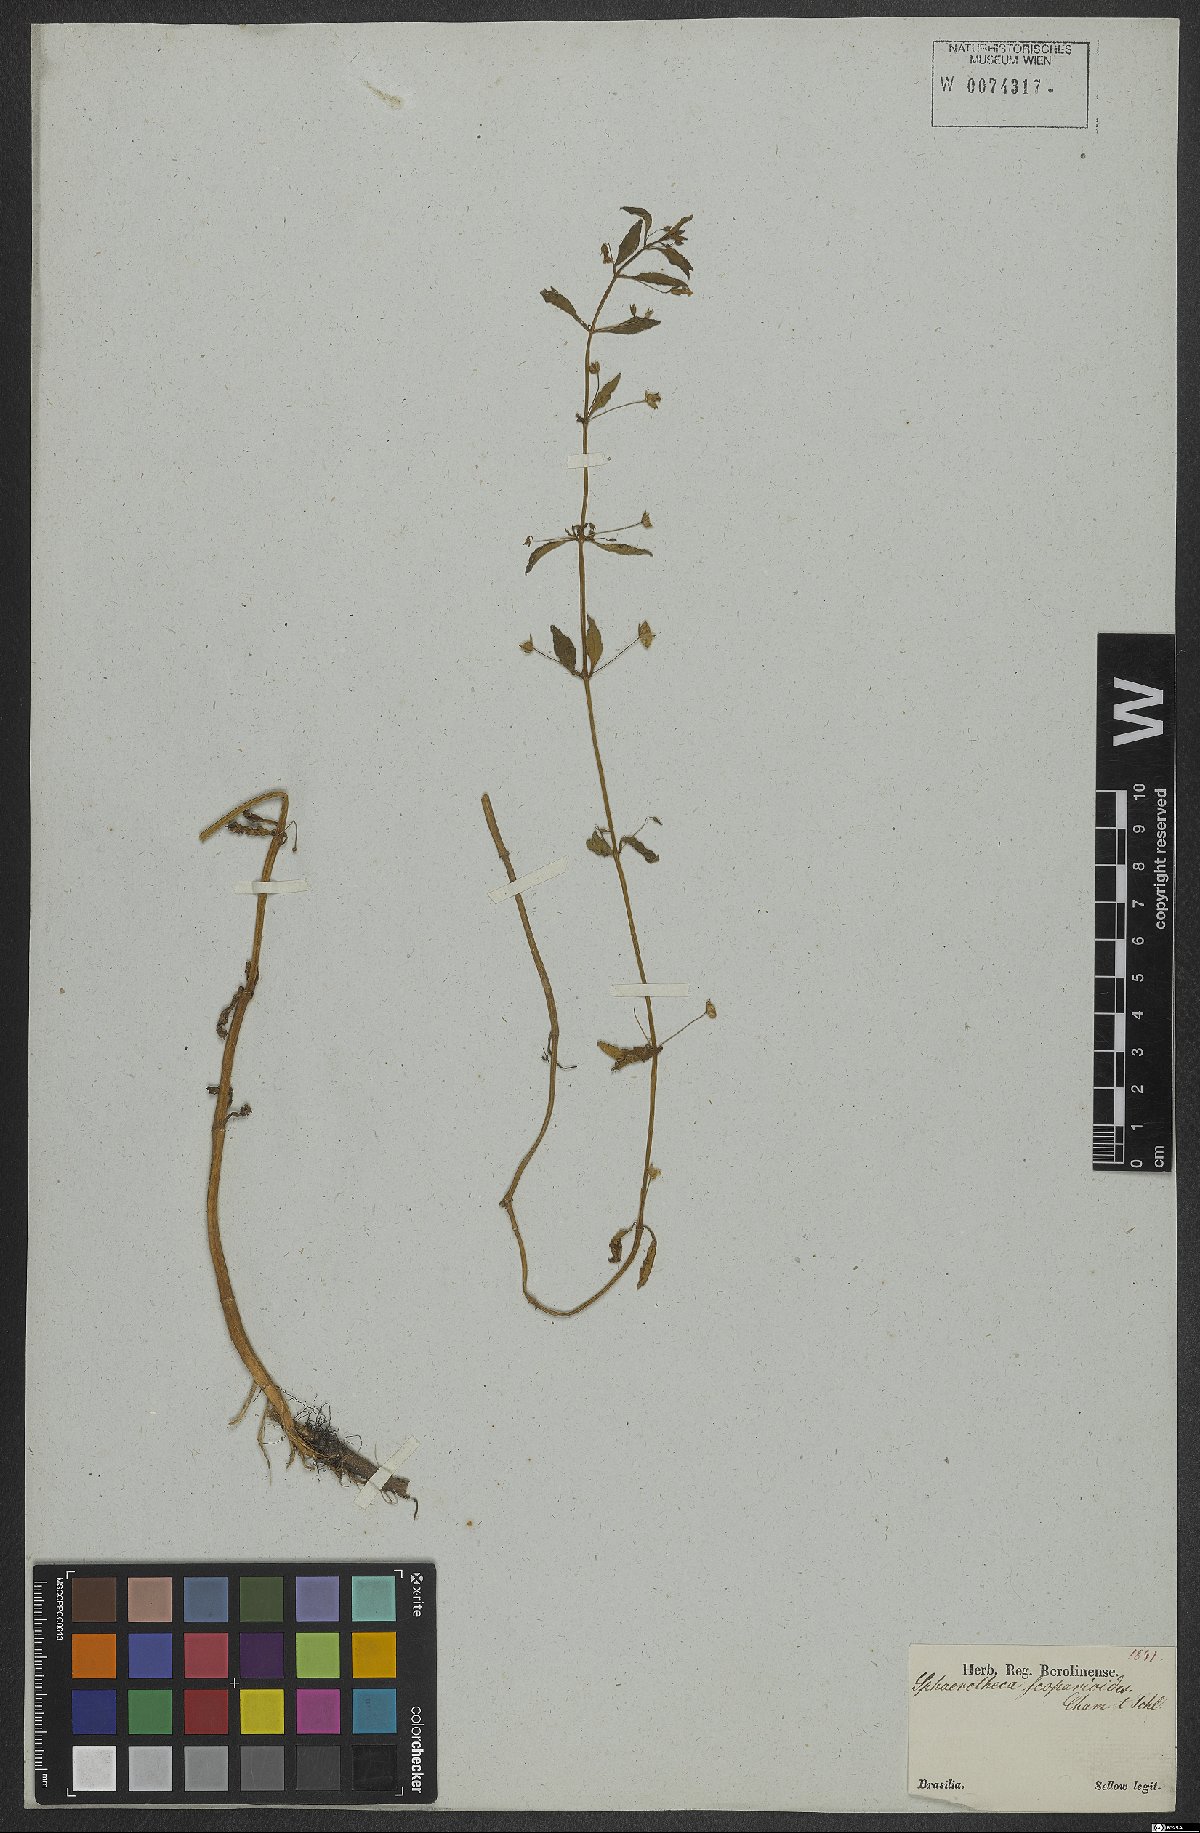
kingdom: Plantae
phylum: Tracheophyta
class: Magnoliopsida
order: Lamiales
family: Plantaginaceae
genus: Conobea
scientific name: Conobea scoparioides
